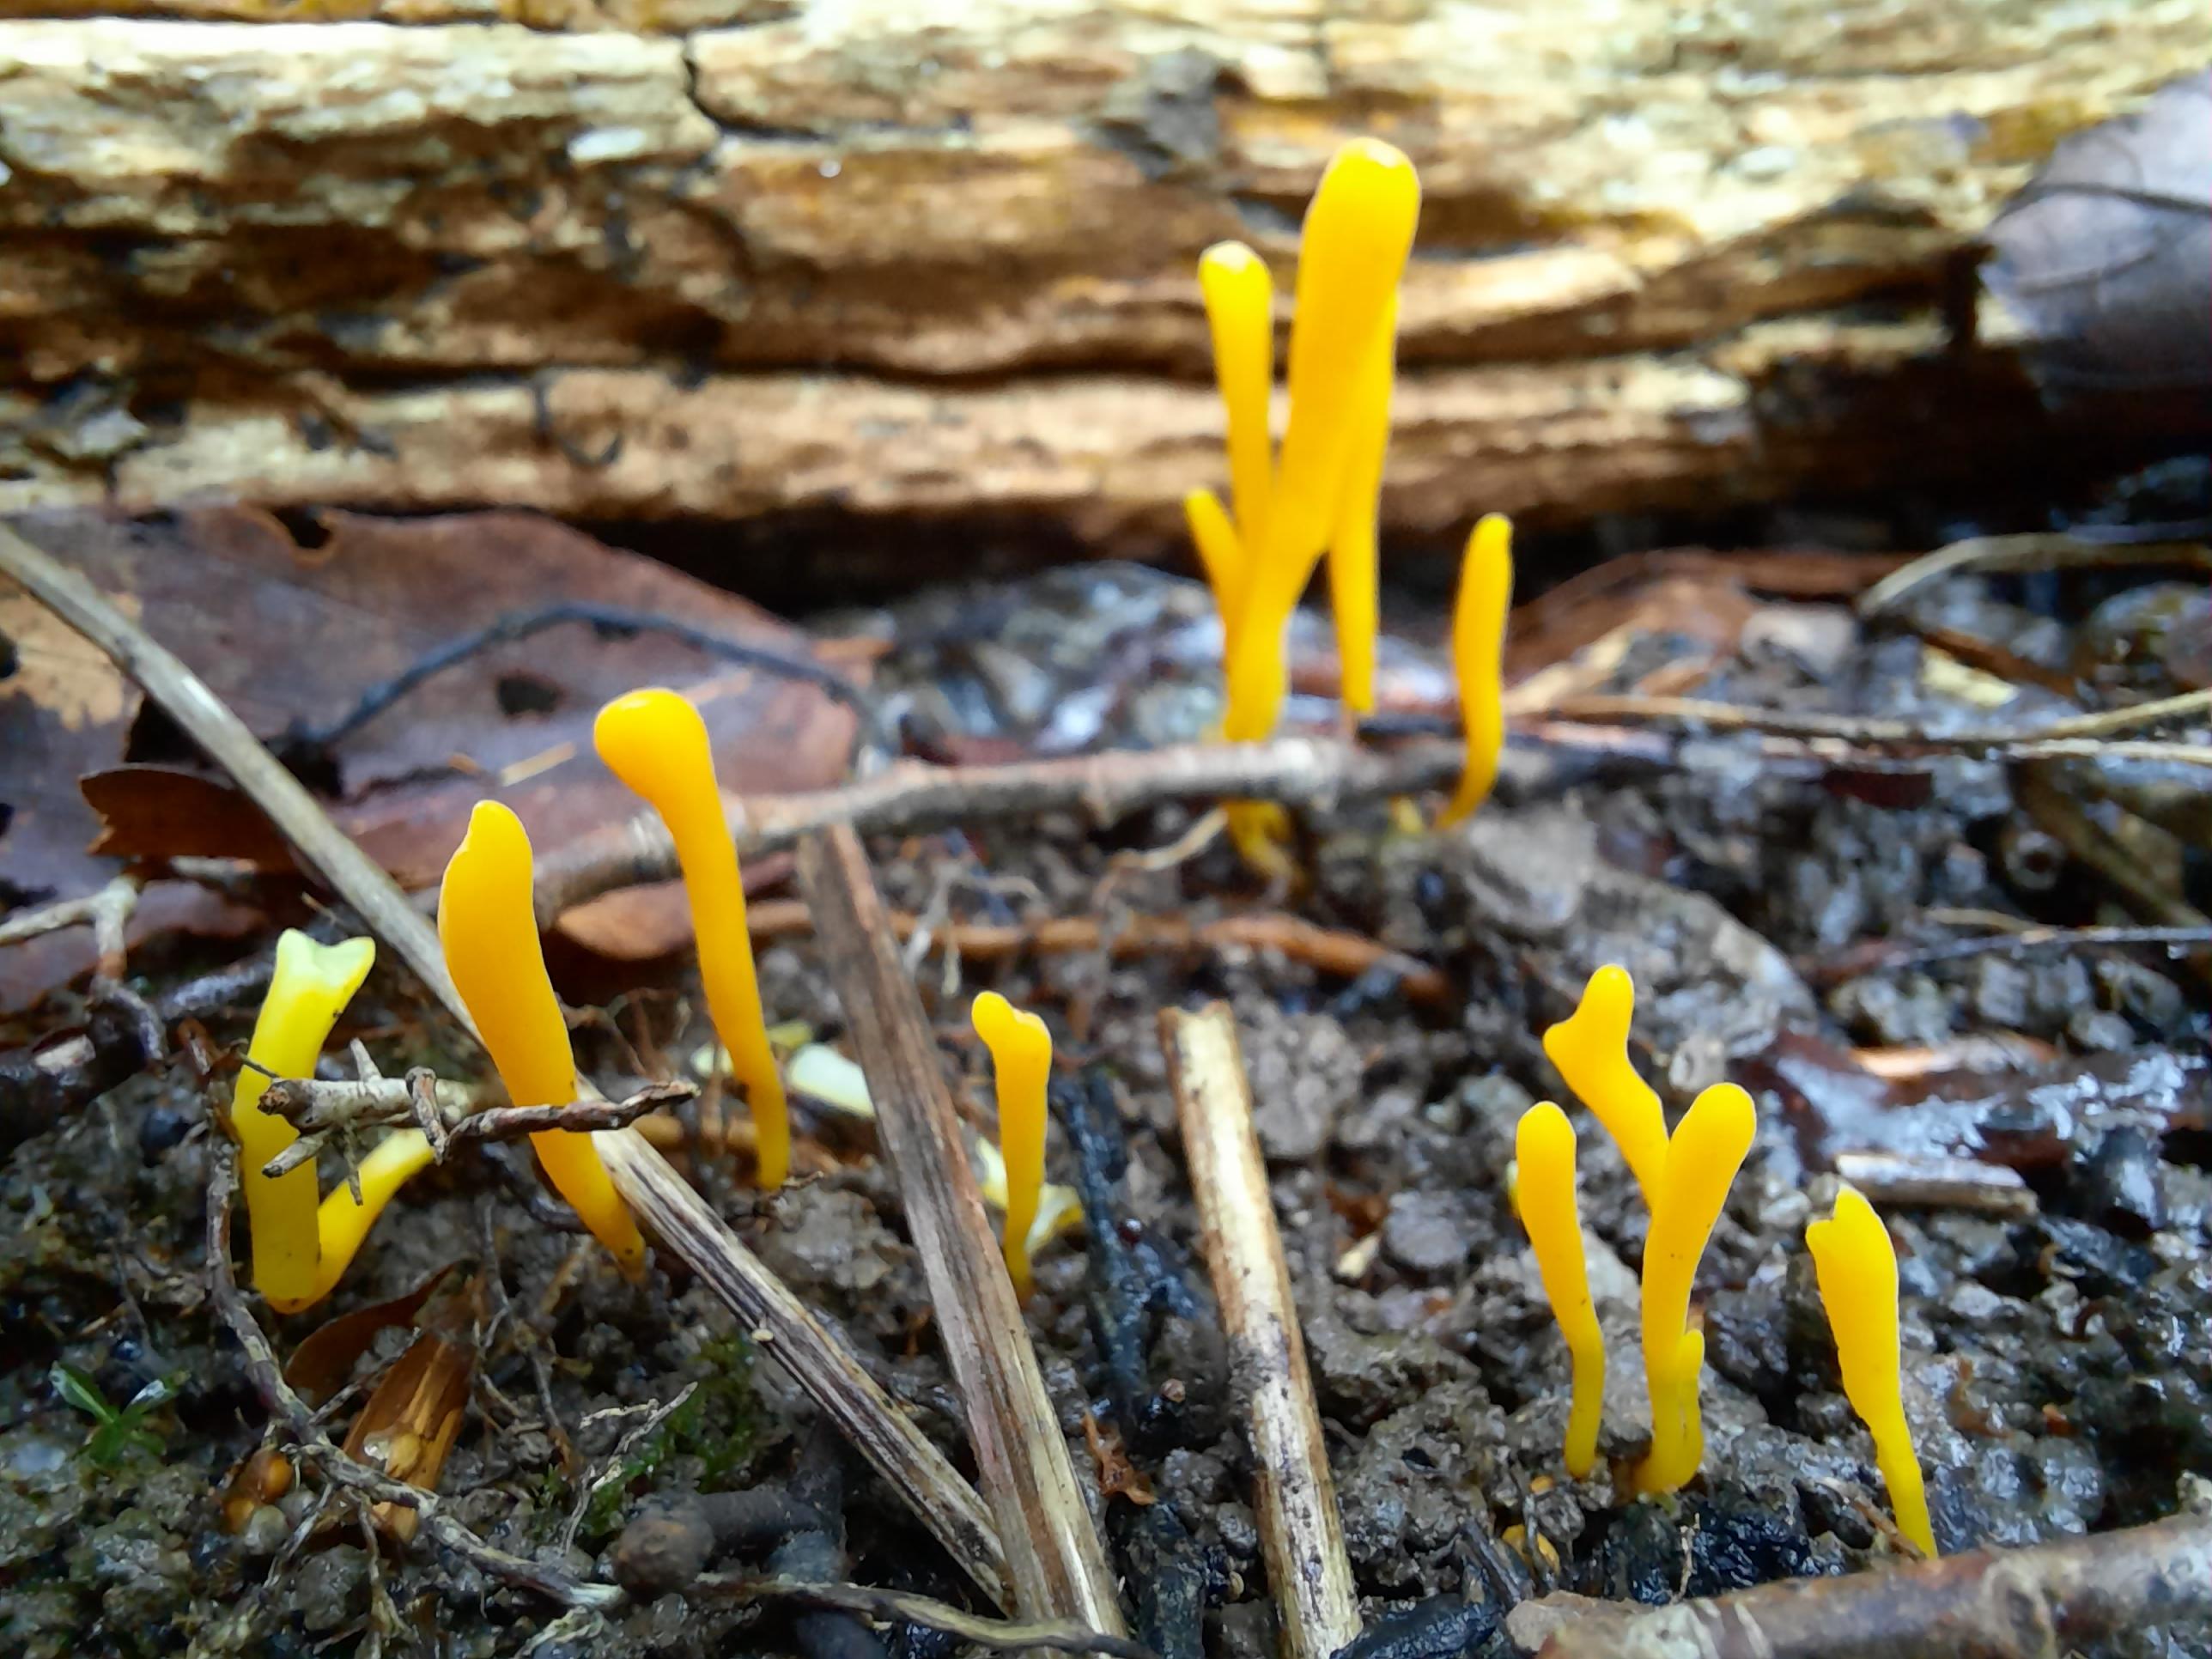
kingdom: Fungi
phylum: Basidiomycota
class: Agaricomycetes
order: Agaricales
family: Clavariaceae
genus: Clavulinopsis
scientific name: Clavulinopsis
